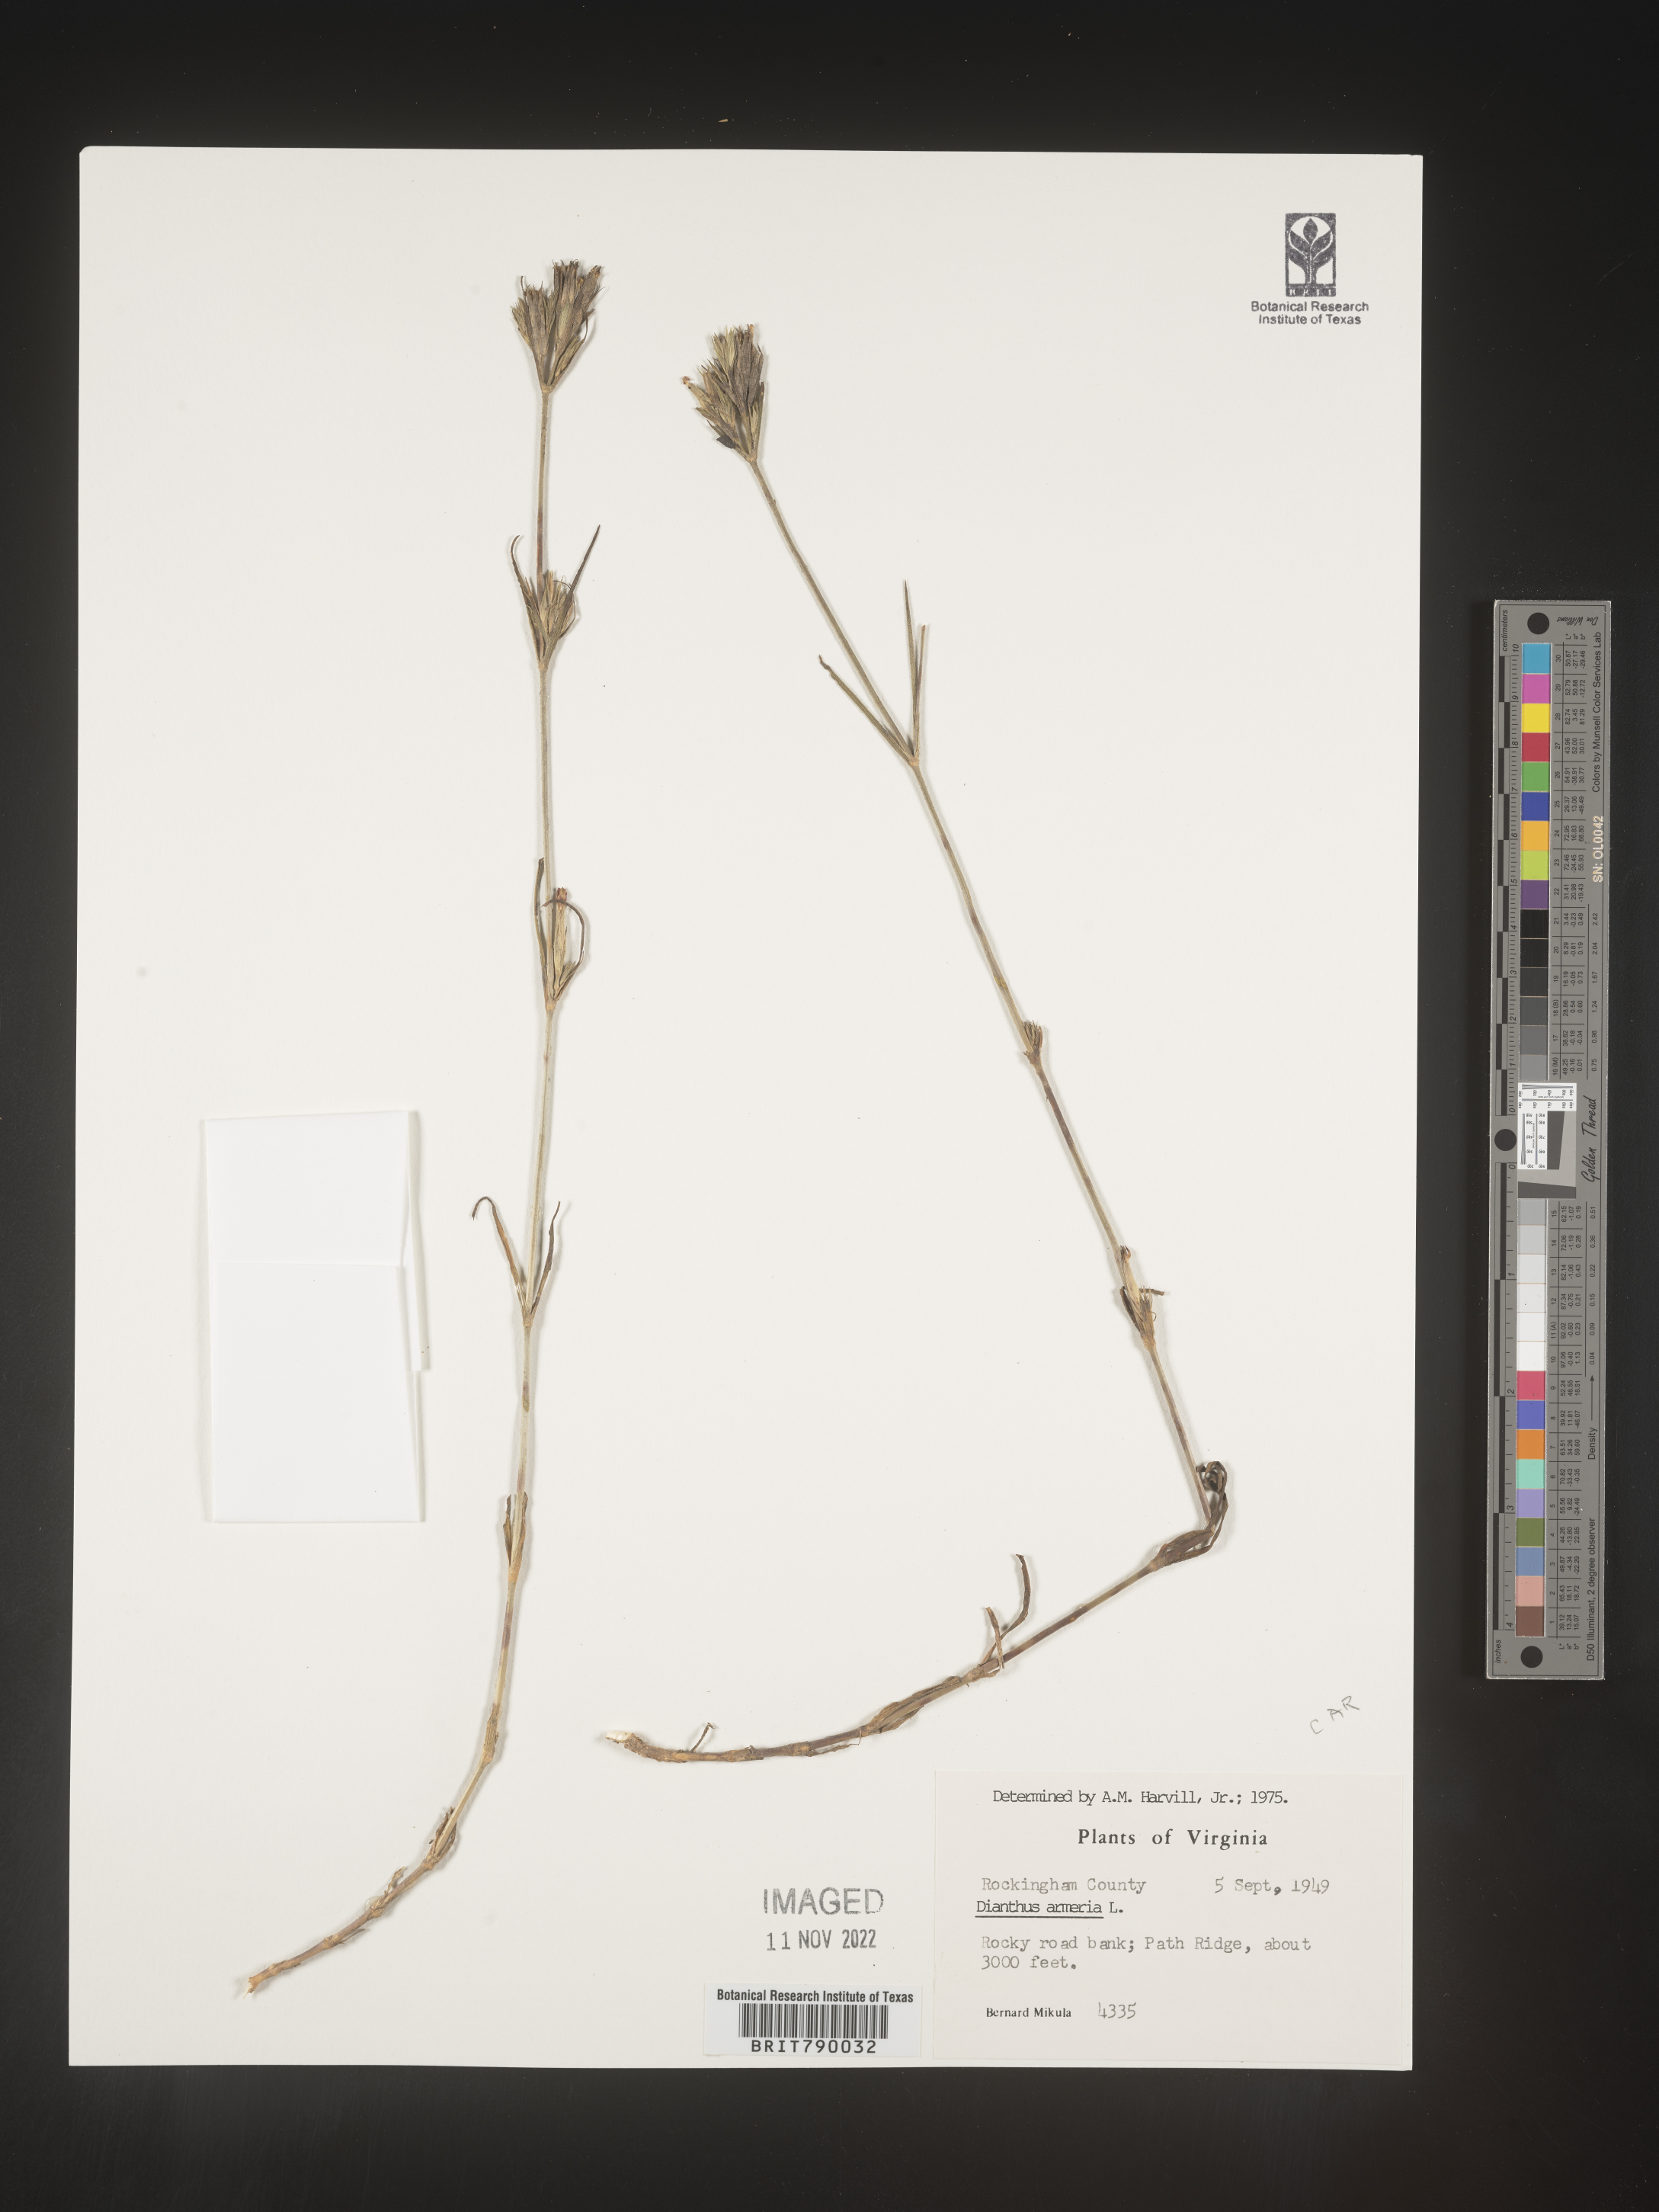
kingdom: Plantae
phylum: Tracheophyta
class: Magnoliopsida
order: Caryophyllales
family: Caryophyllaceae
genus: Dianthus
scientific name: Dianthus armeria
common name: Deptford pink
